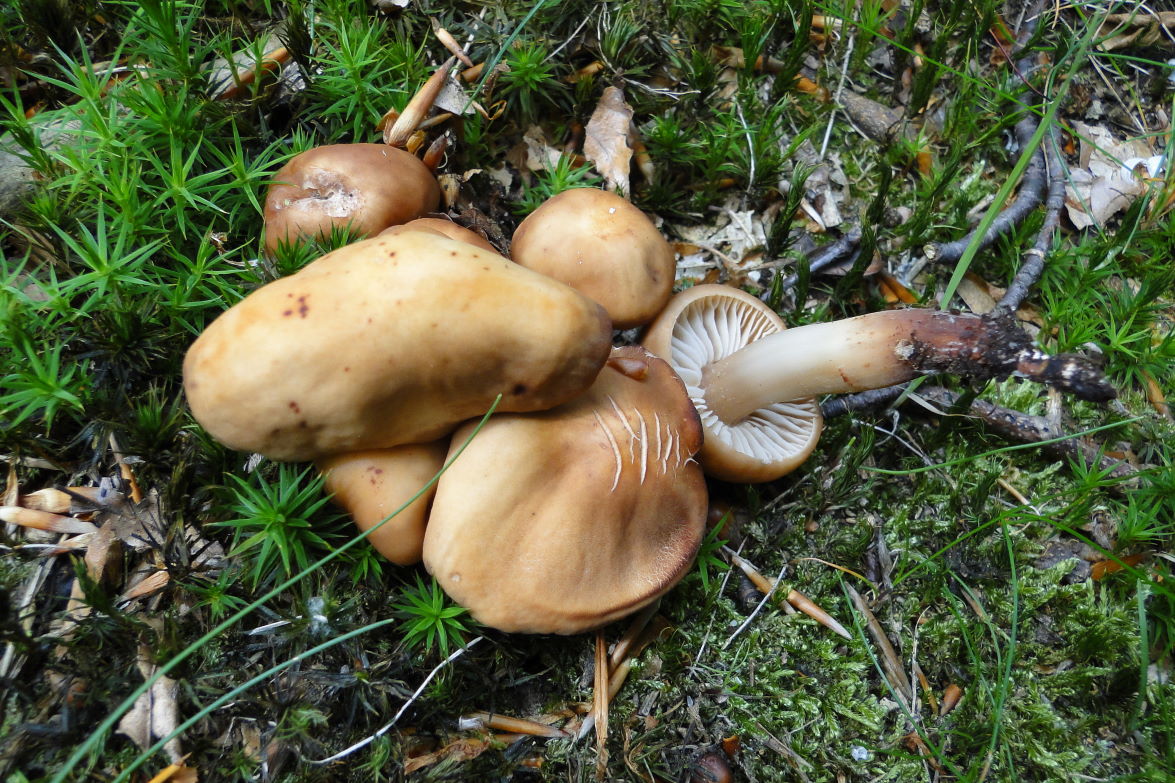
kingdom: Fungi
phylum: Basidiomycota
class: Agaricomycetes
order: Agaricales
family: Omphalotaceae
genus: Gymnopus
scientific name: Gymnopus fusipes
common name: tenstokket fladhat
